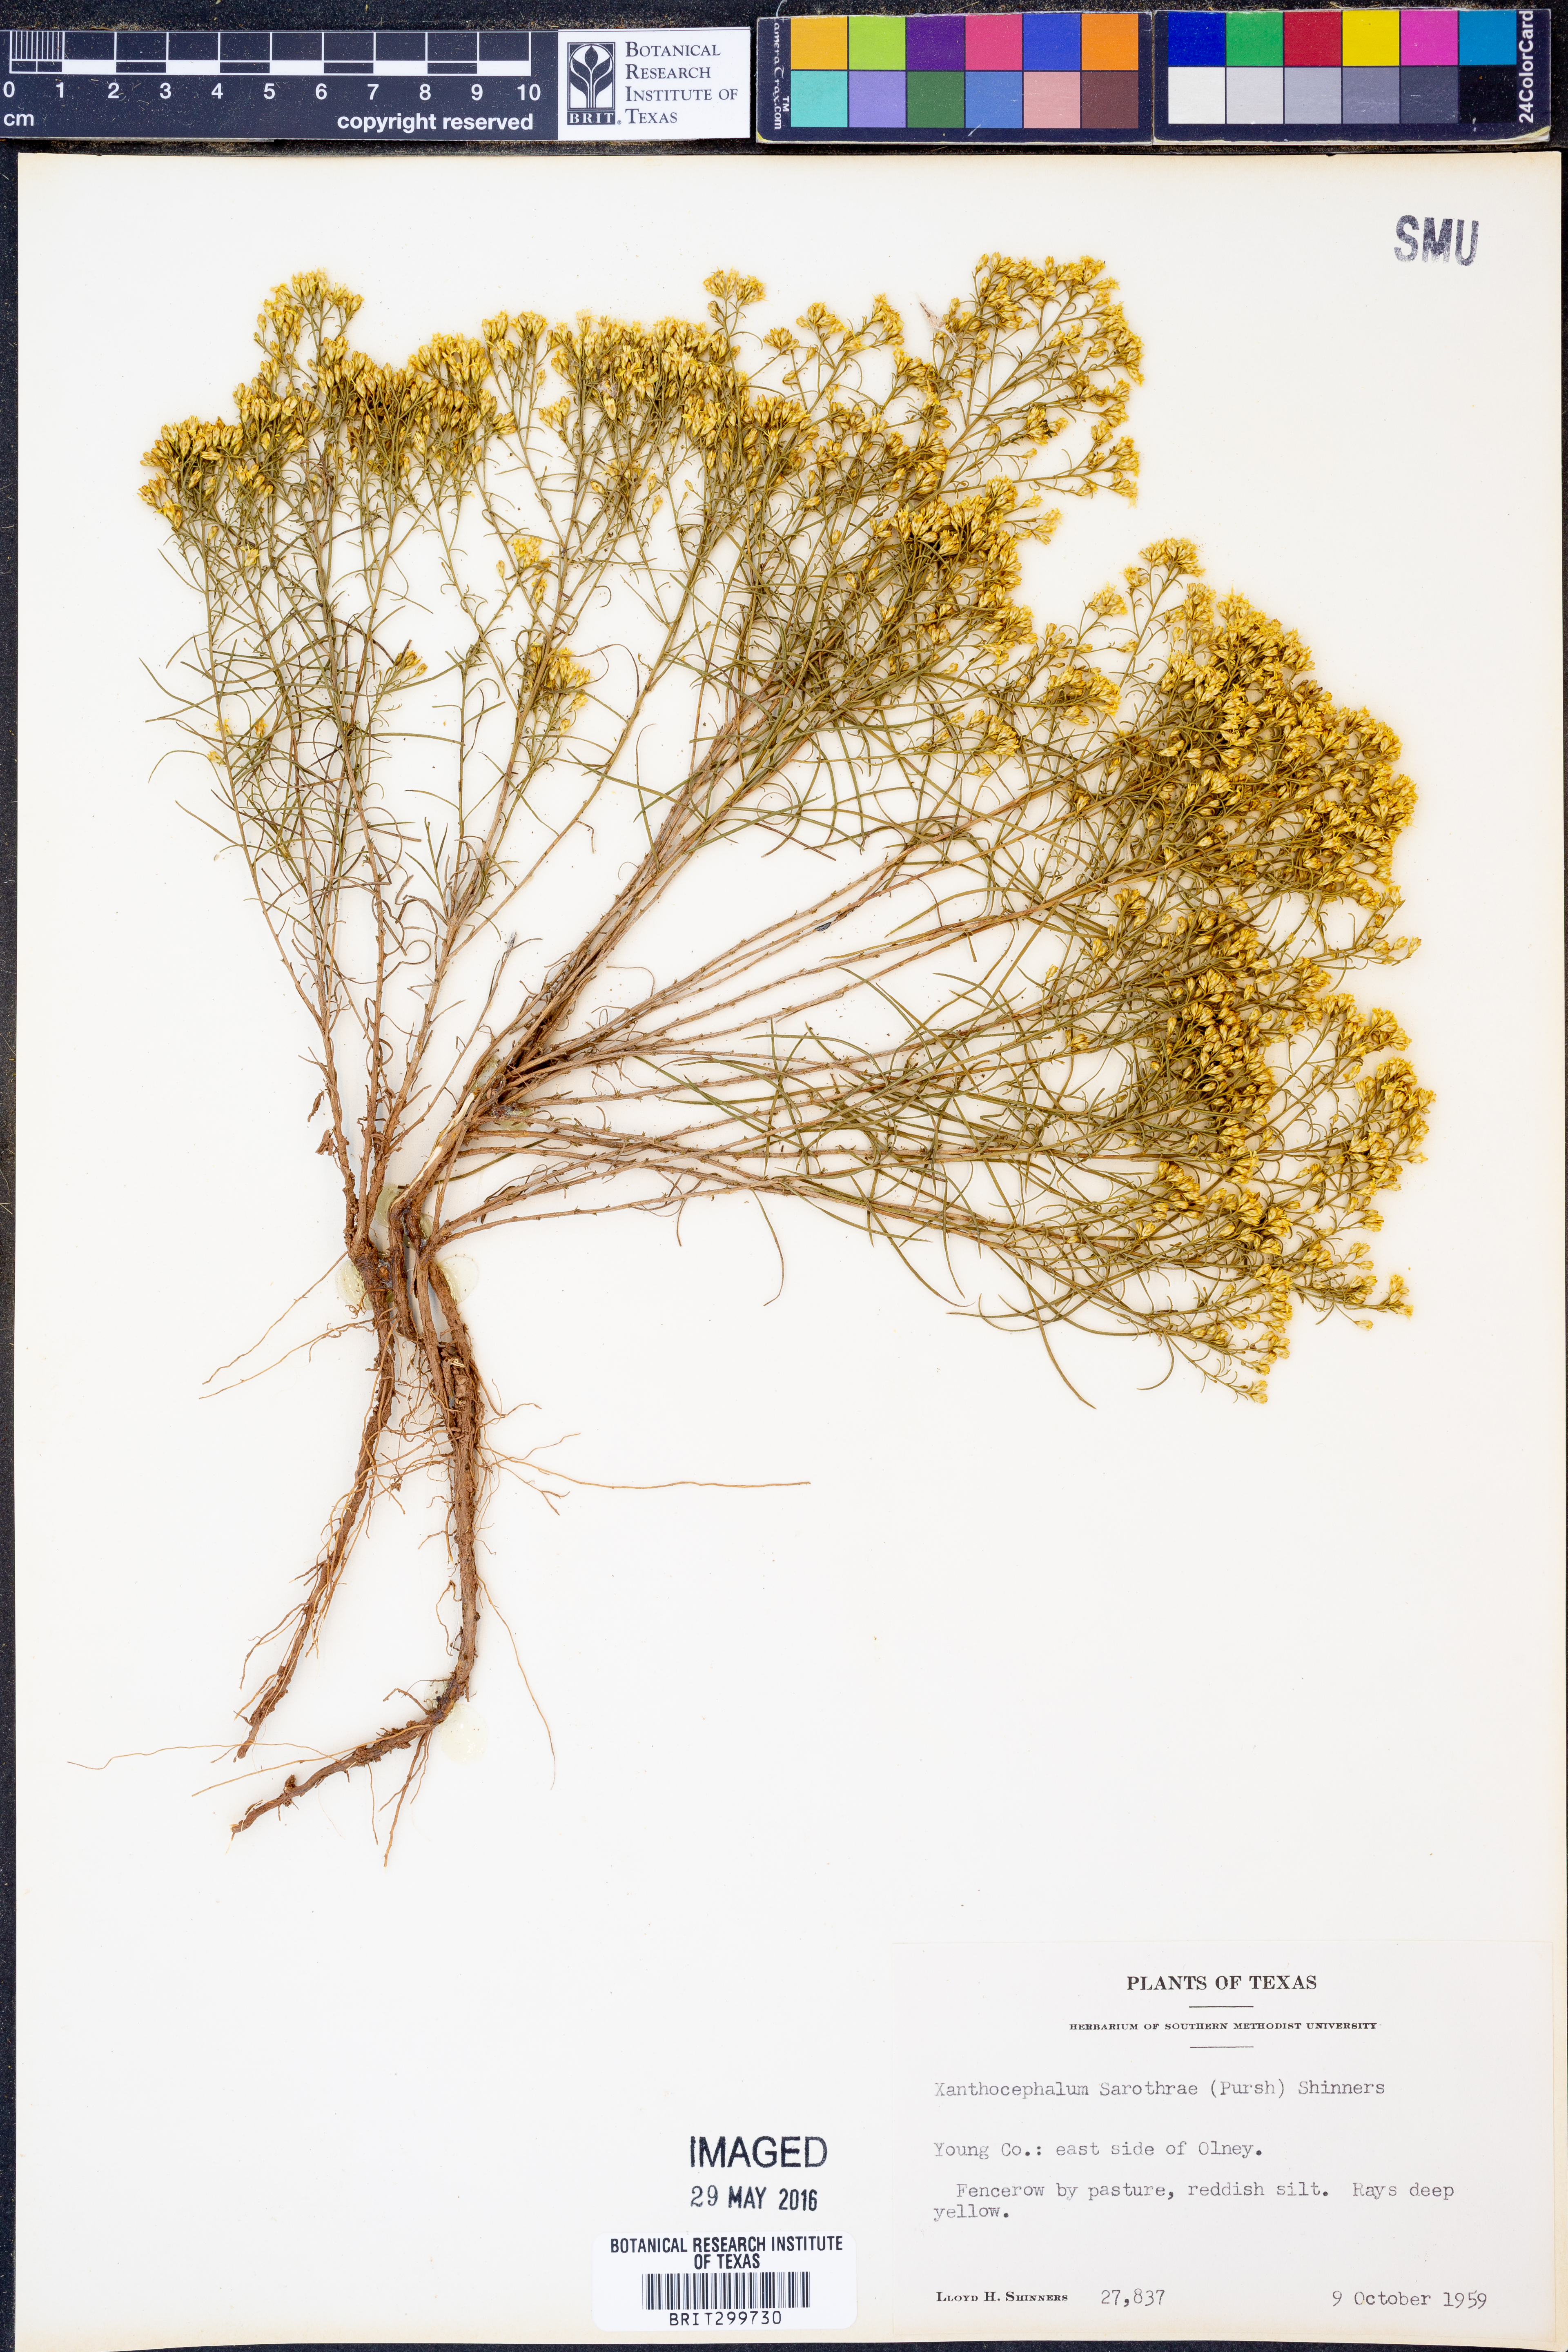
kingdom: Plantae
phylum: Tracheophyta
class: Magnoliopsida
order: Asterales
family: Asteraceae
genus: Gutierrezia
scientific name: Gutierrezia sarothrae
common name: Broom snakeweed
